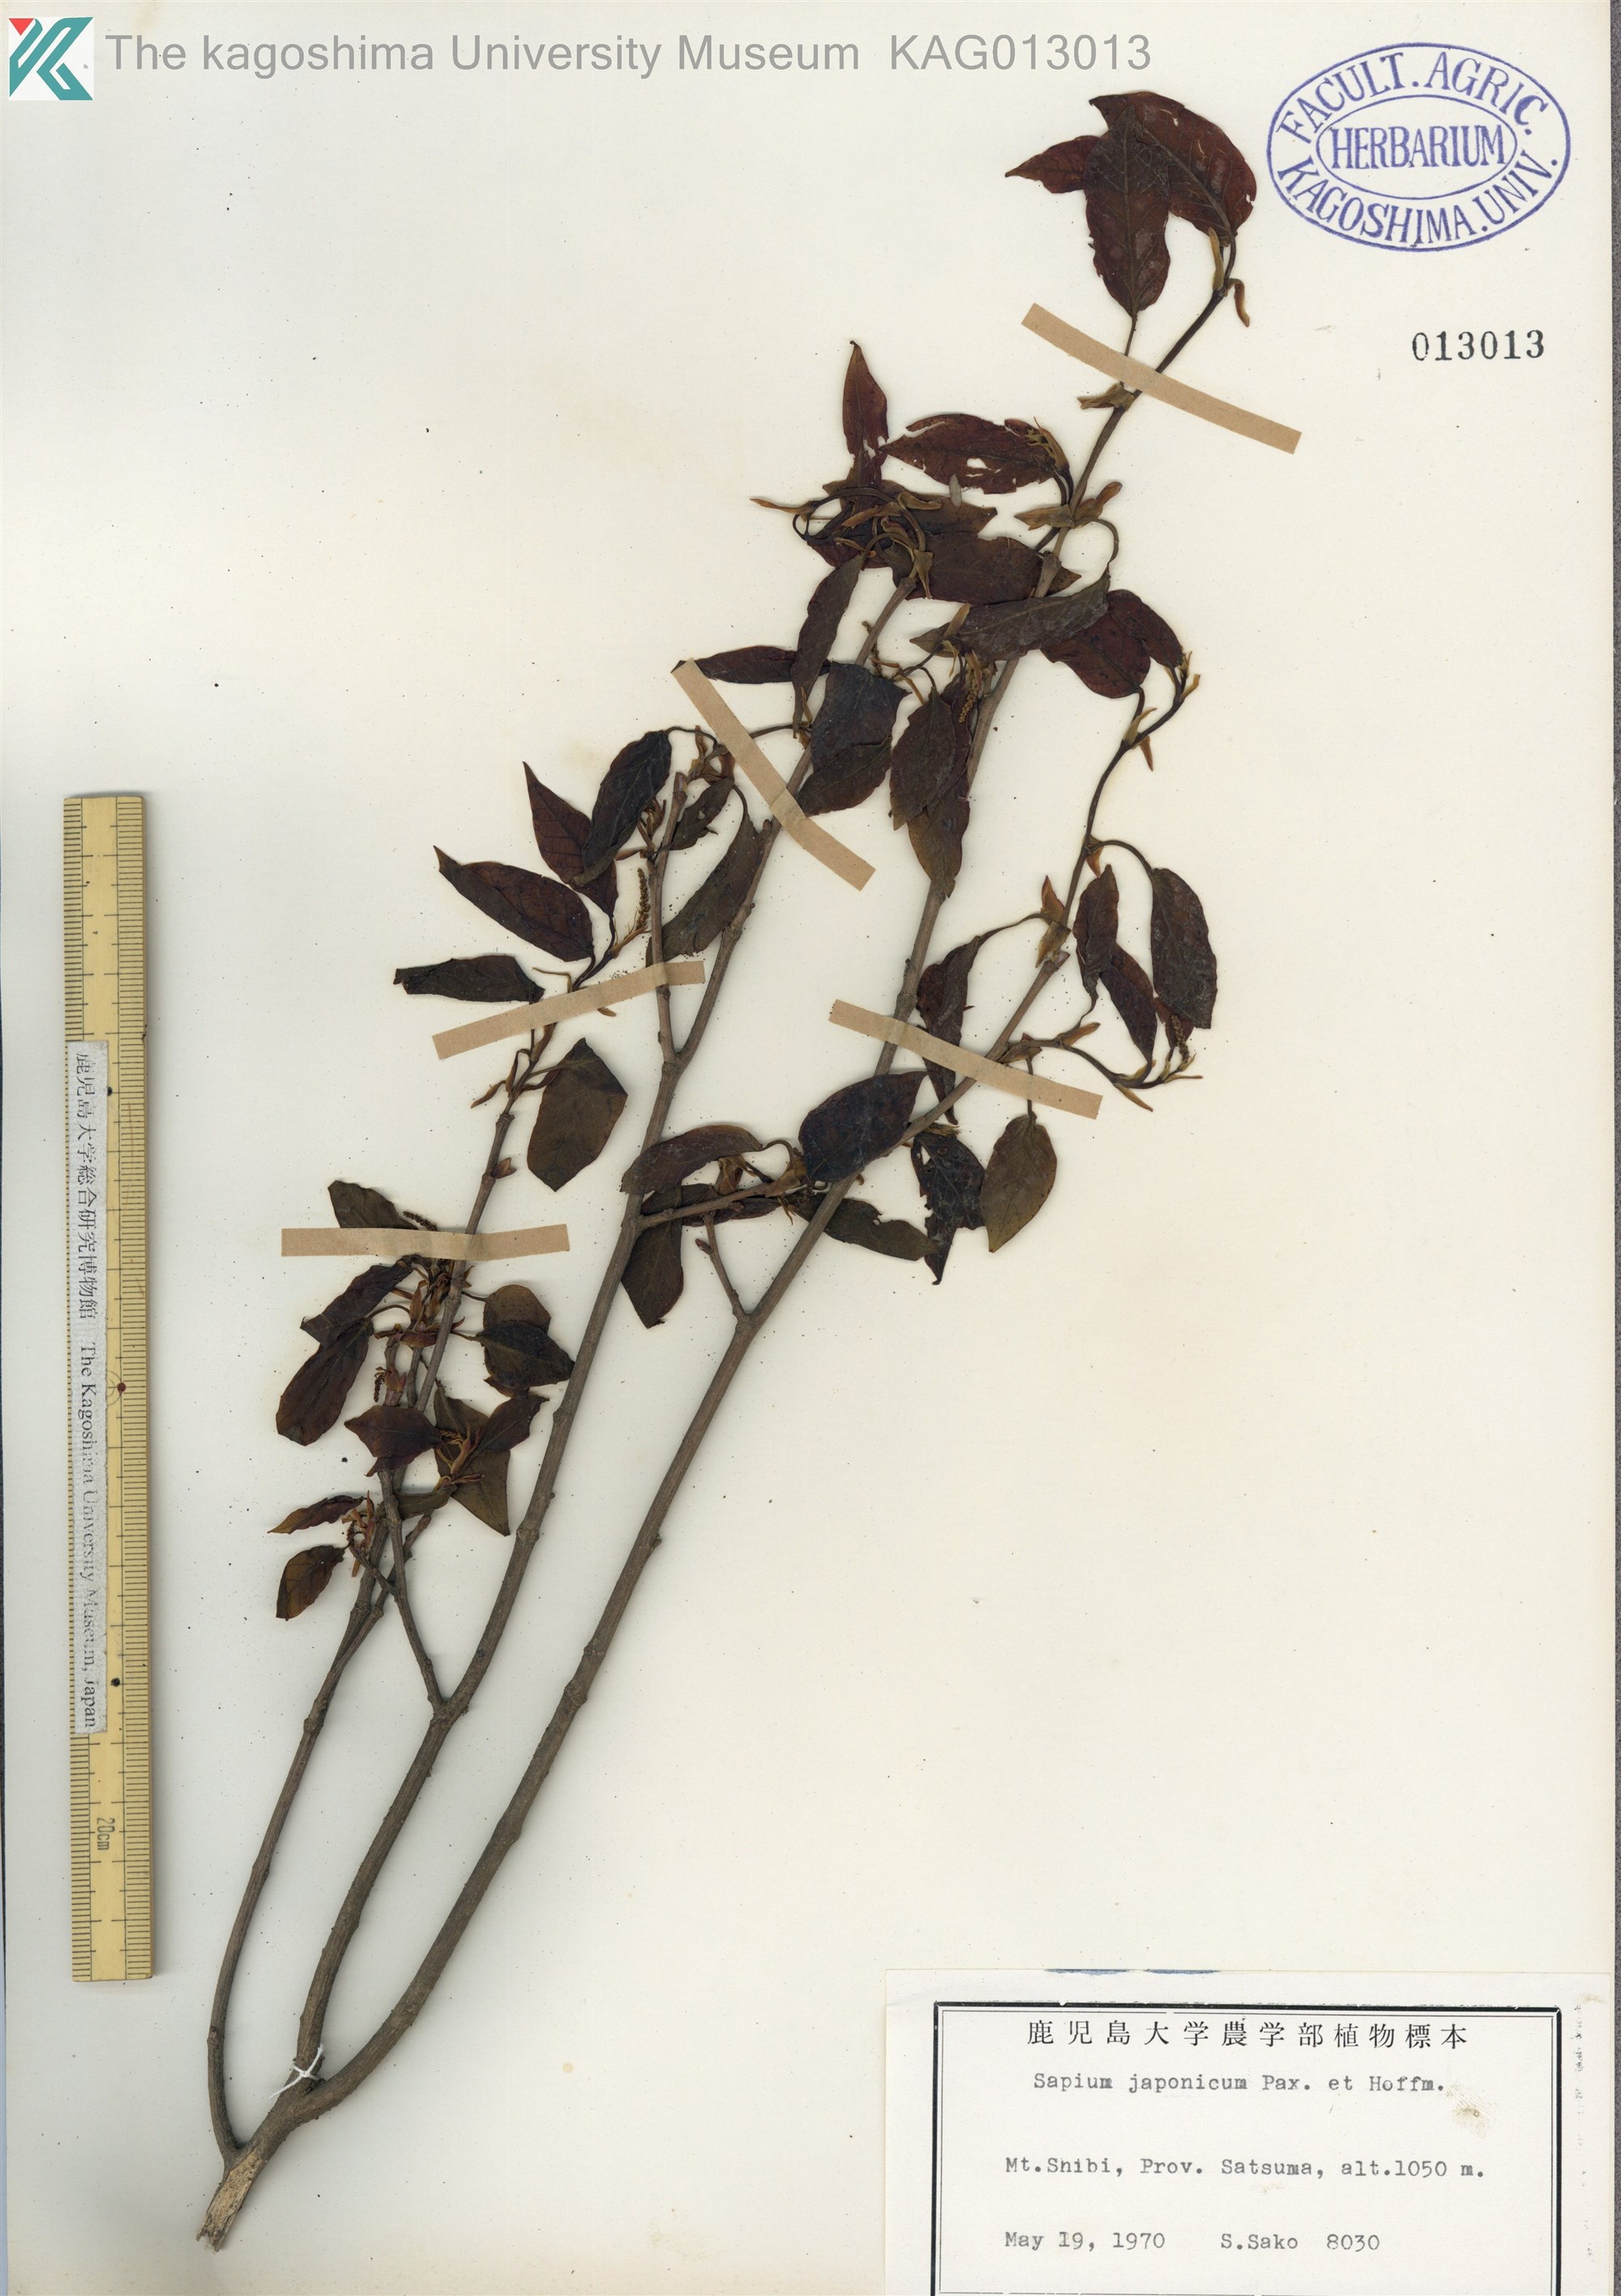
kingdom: Plantae
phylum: Tracheophyta
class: Magnoliopsida
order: Malpighiales
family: Euphorbiaceae
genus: Neoshirakia
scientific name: Neoshirakia japonica
